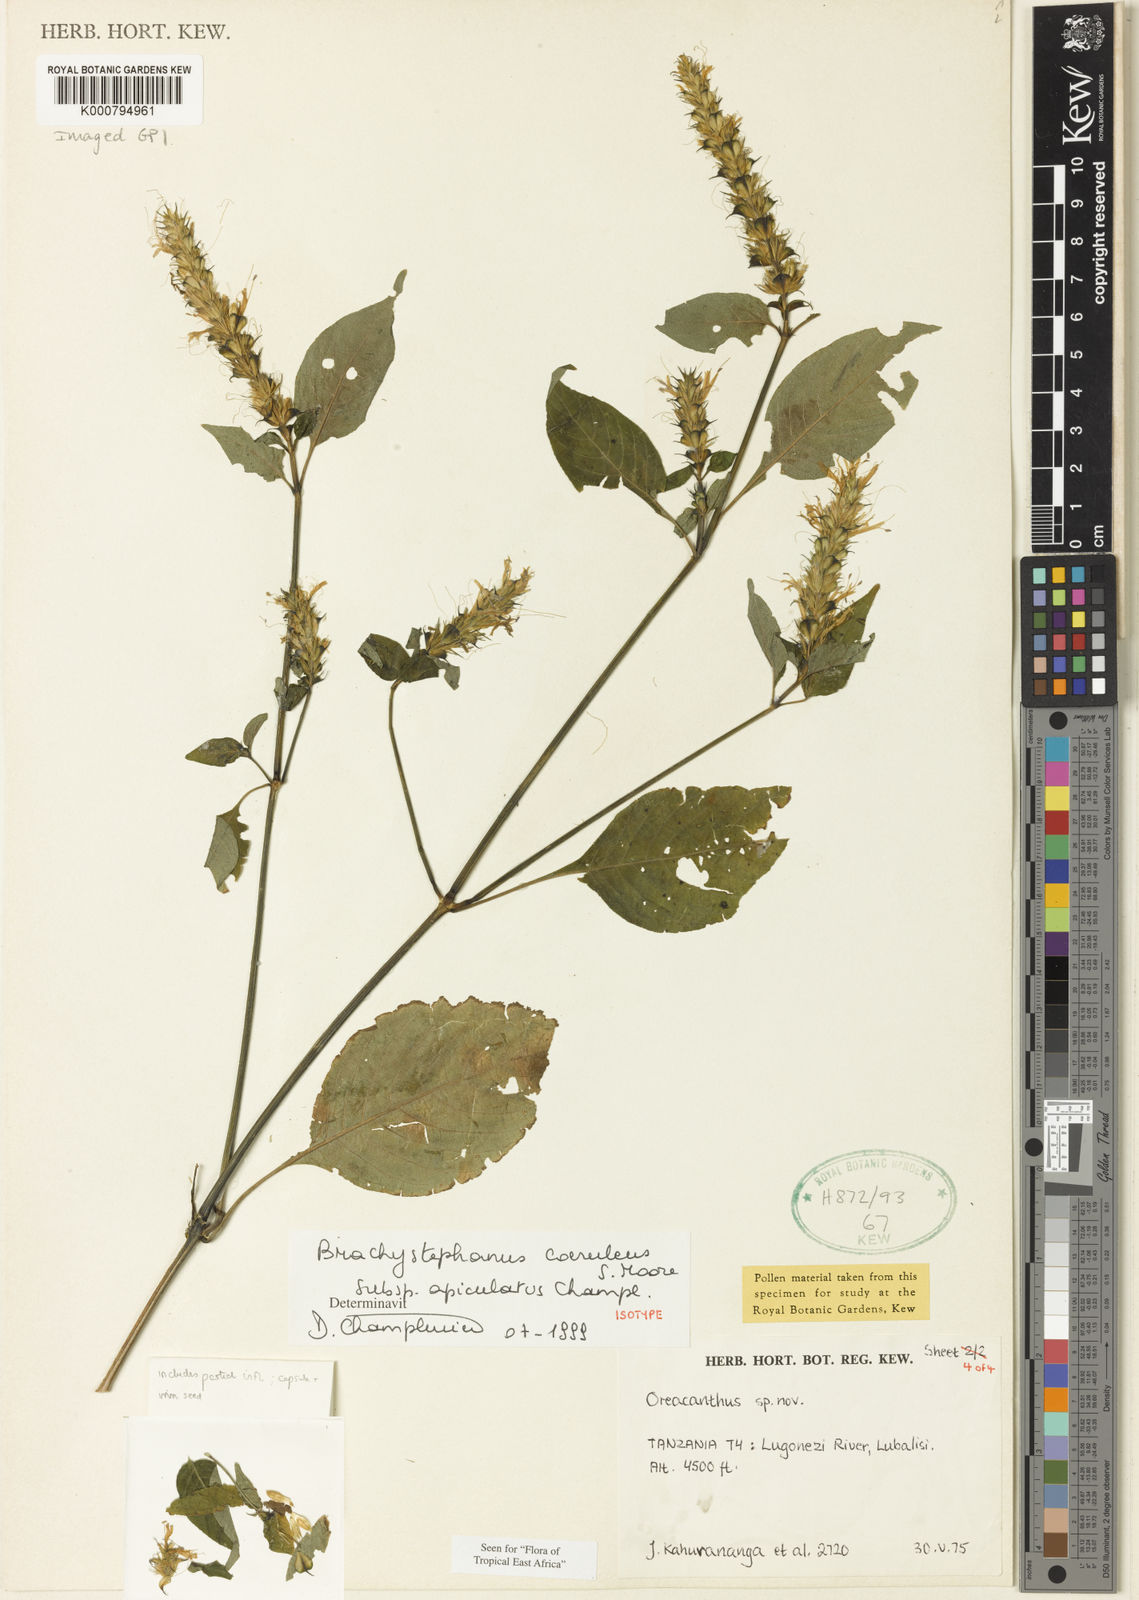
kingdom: Plantae
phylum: Tracheophyta
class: Magnoliopsida
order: Lamiales
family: Acanthaceae
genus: Brachystephanus
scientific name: Brachystephanus coeruleus
